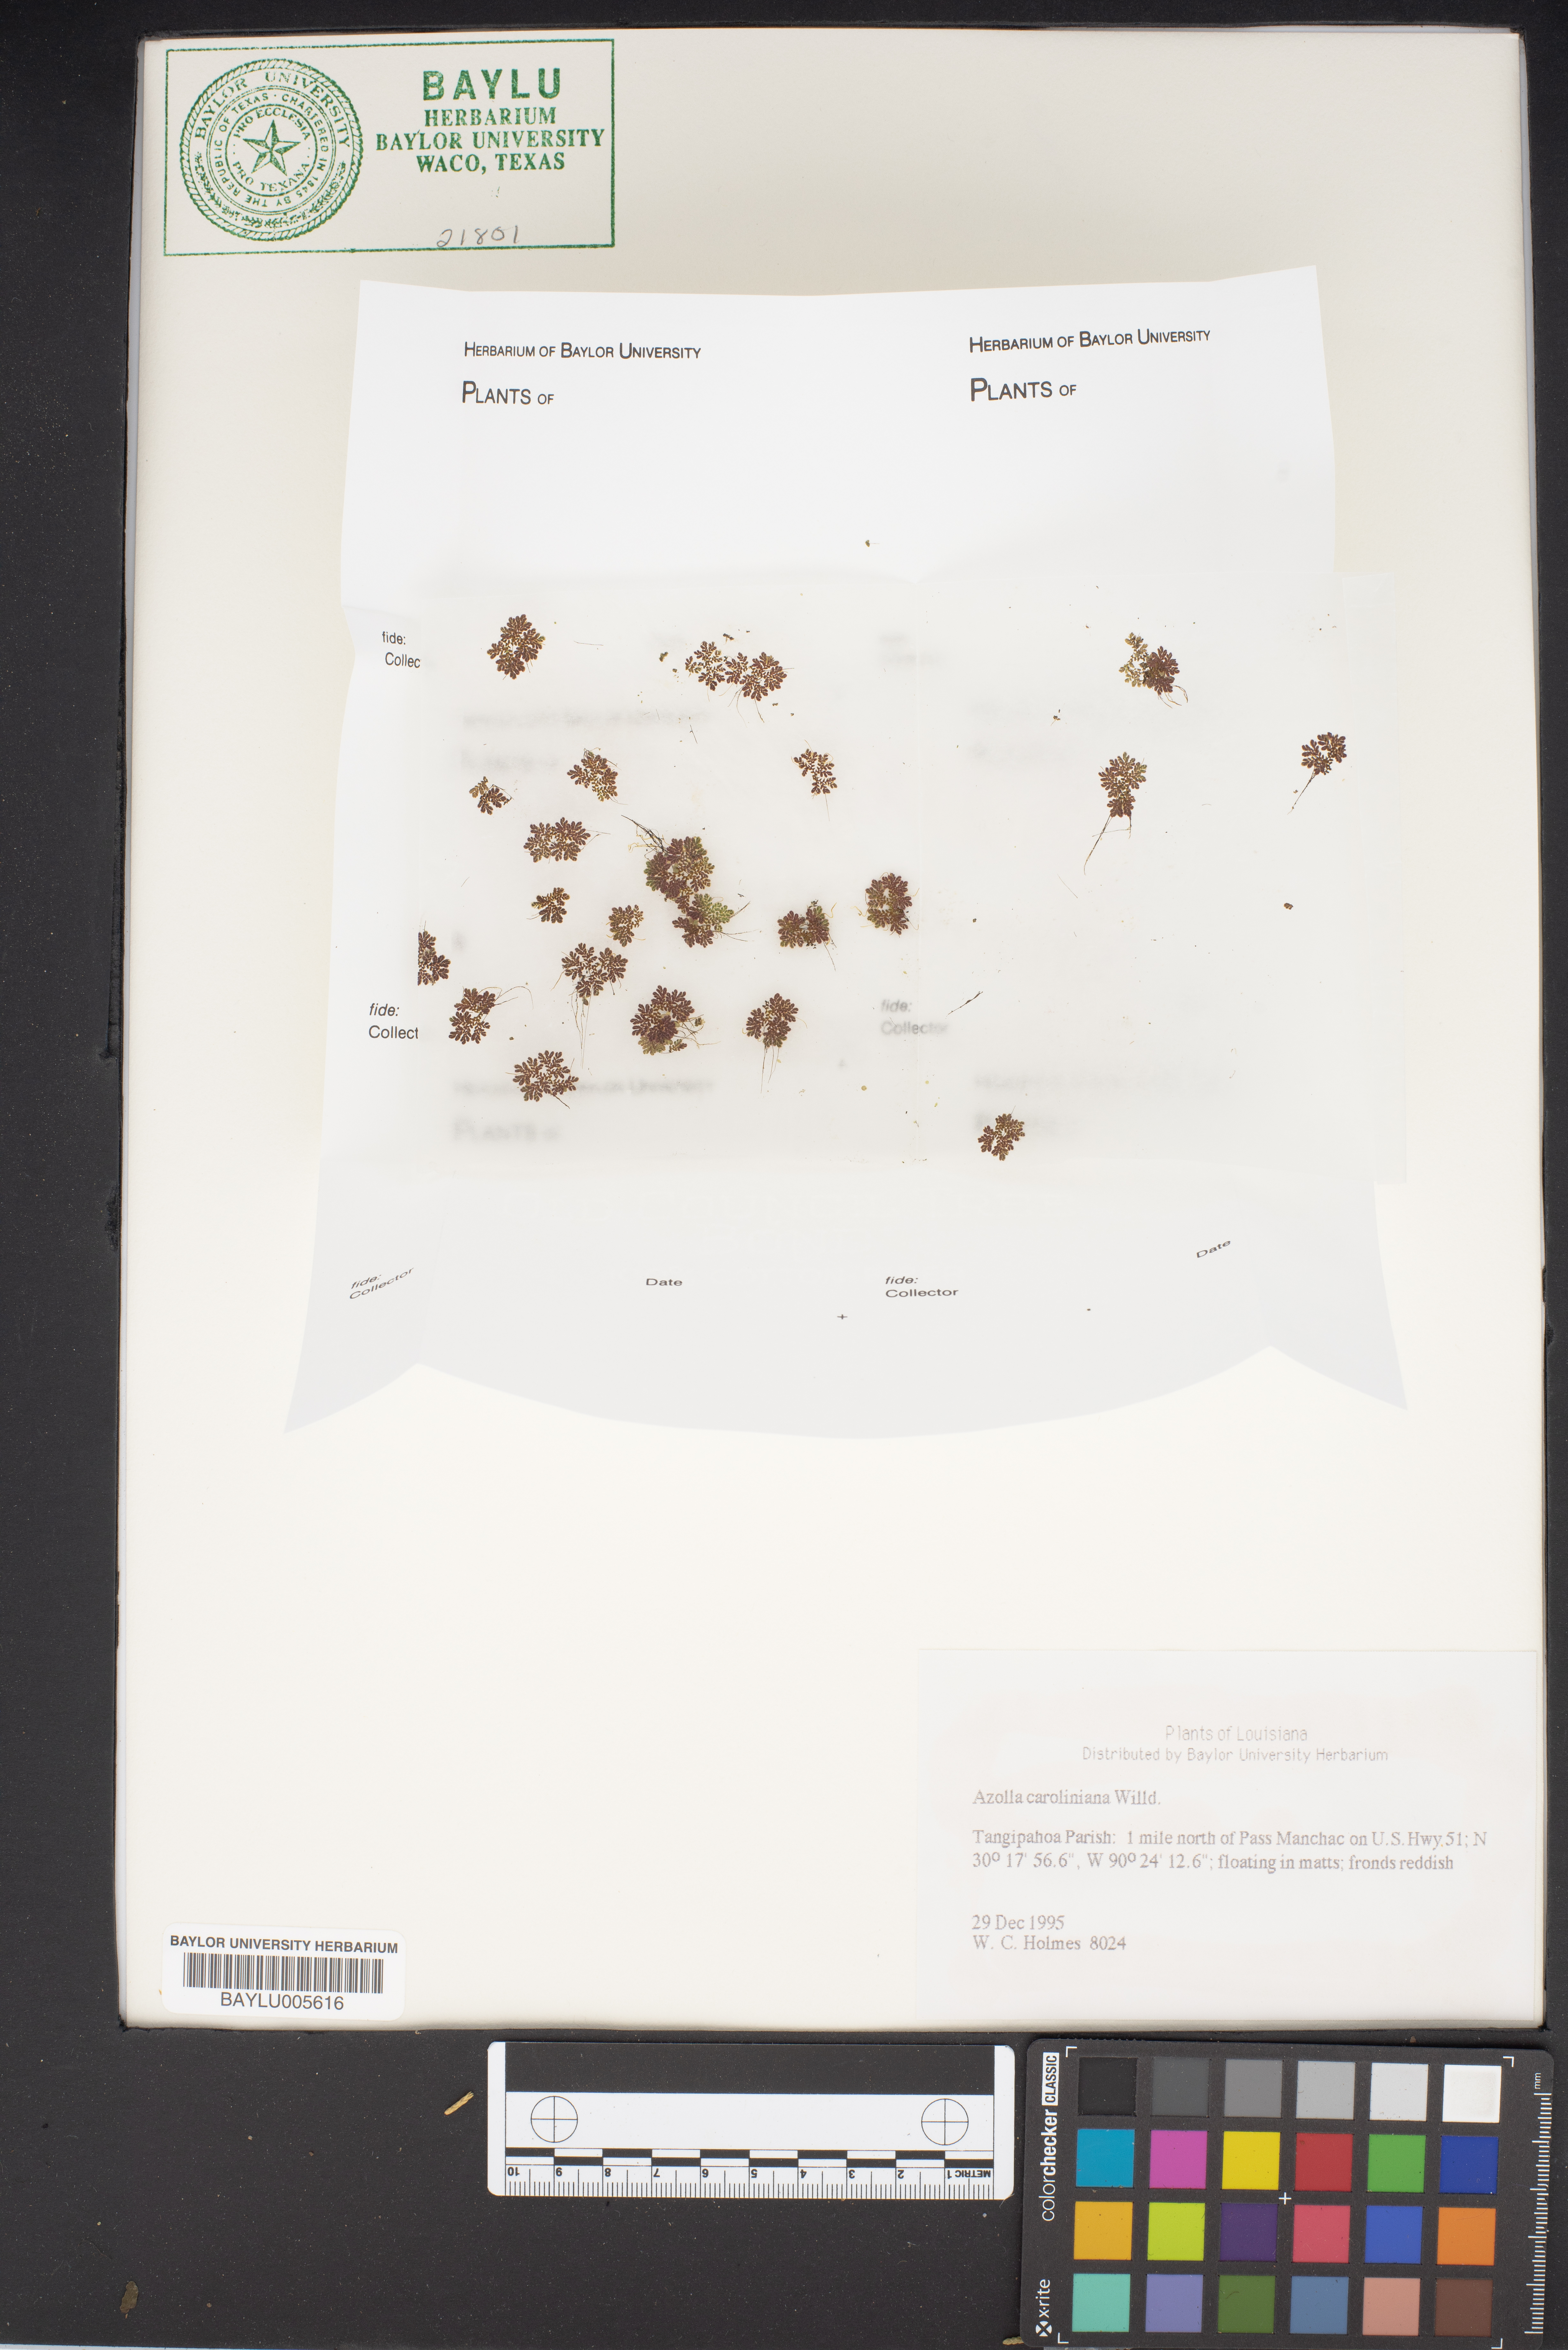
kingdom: Plantae
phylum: Tracheophyta
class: Polypodiopsida
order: Salviniales
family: Salviniaceae
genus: Azolla
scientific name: Azolla caroliniana
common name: Carolina mosquitofern
